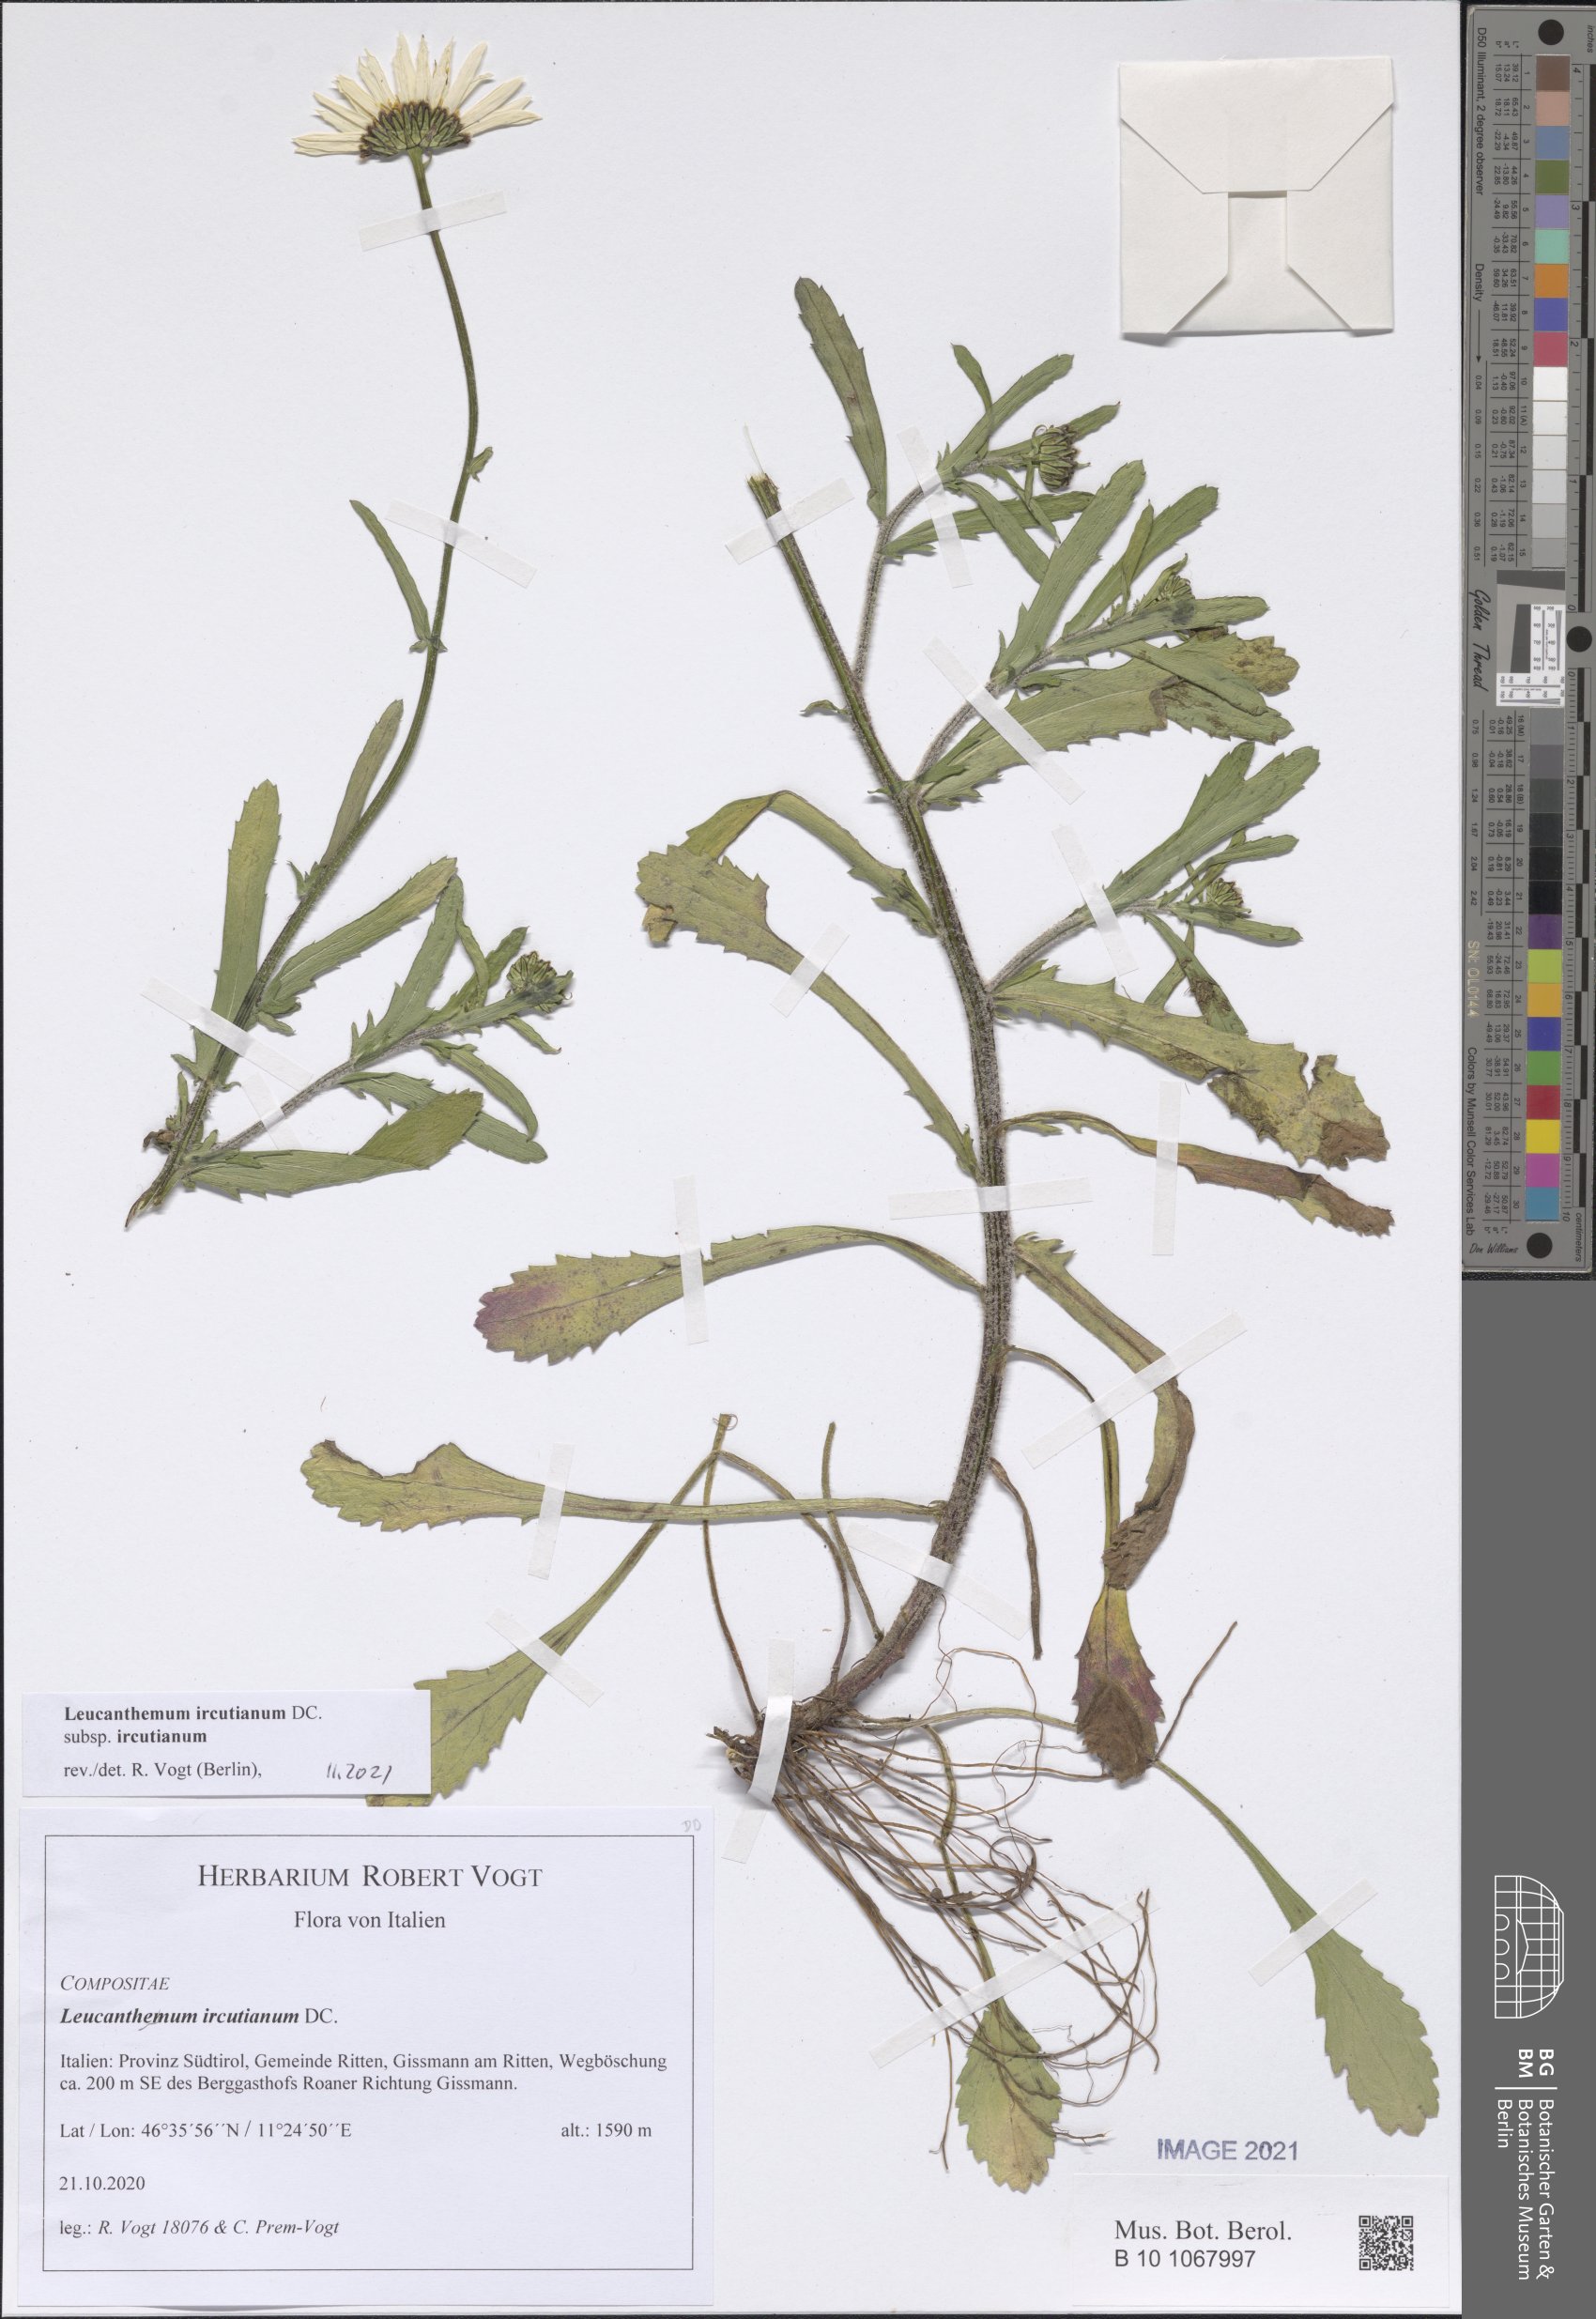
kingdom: Plantae
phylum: Tracheophyta
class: Magnoliopsida
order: Asterales
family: Asteraceae
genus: Leucanthemum
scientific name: Leucanthemum ircutianum
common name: Daisy
